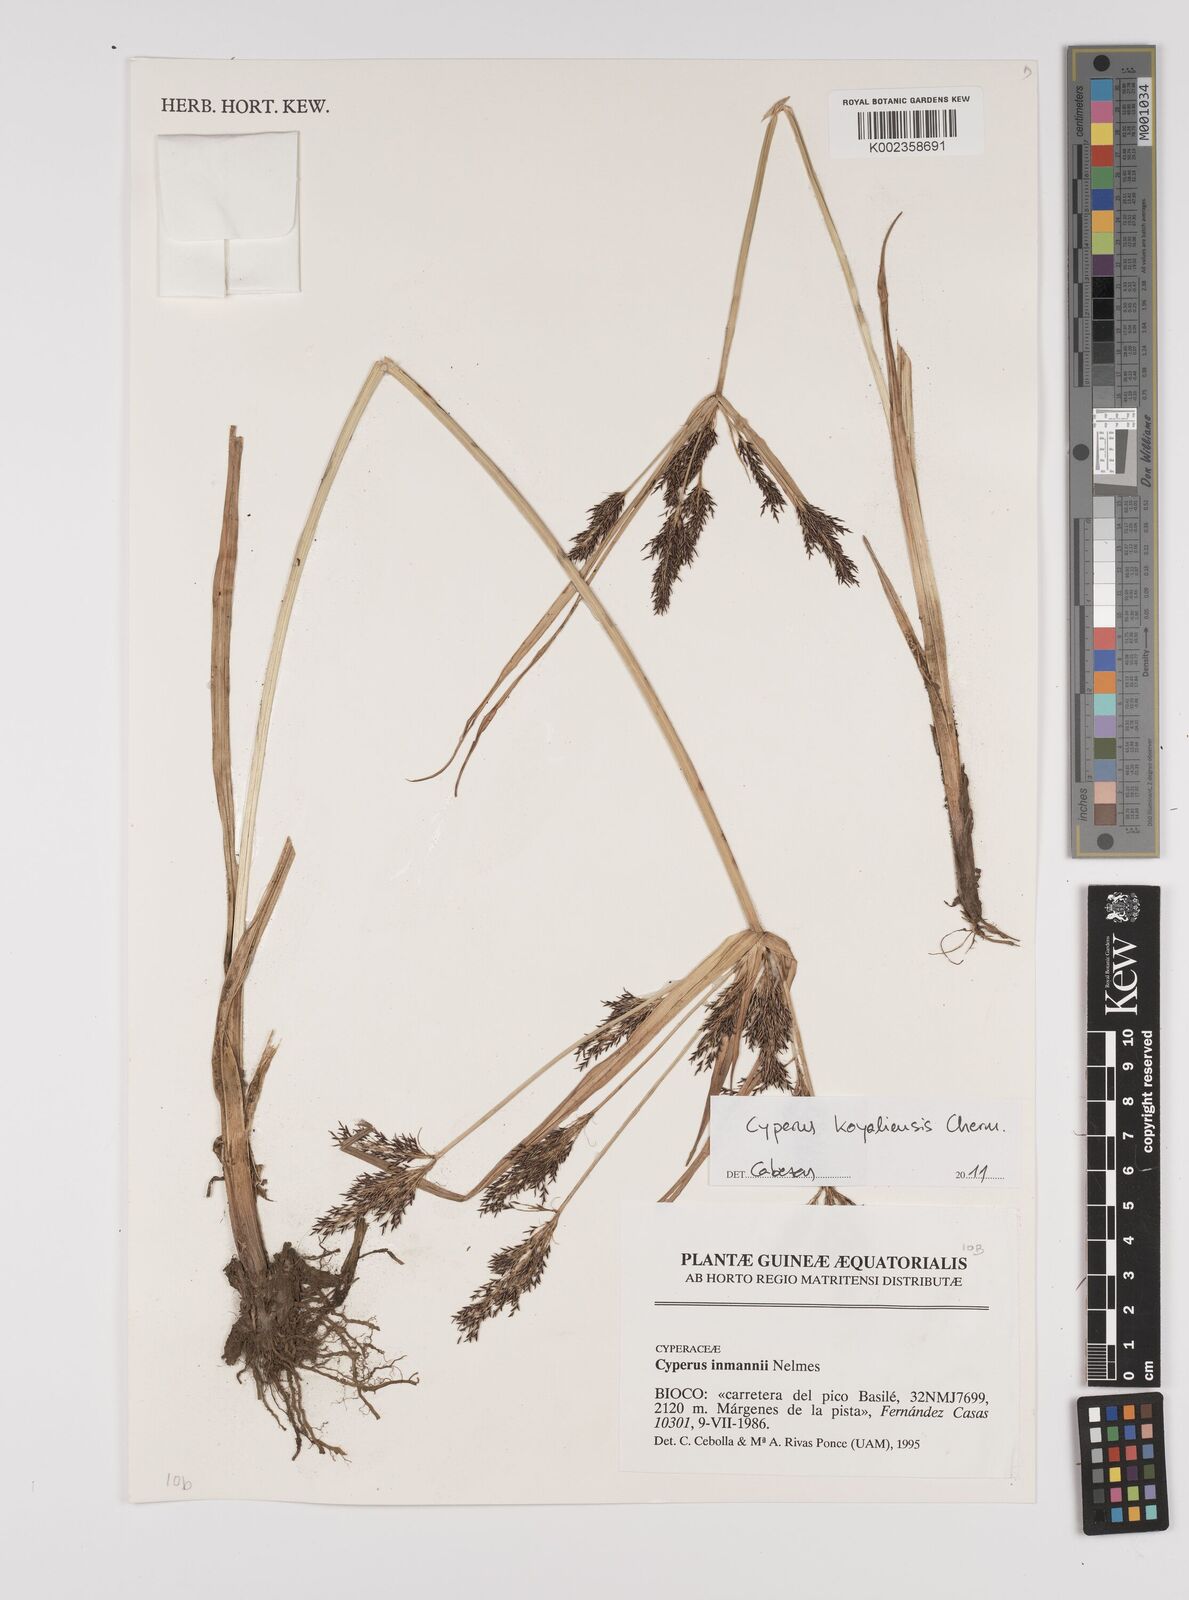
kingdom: Plantae
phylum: Tracheophyta
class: Liliopsida
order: Poales
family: Cyperaceae
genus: Cyperus
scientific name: Cyperus koyaliensis
